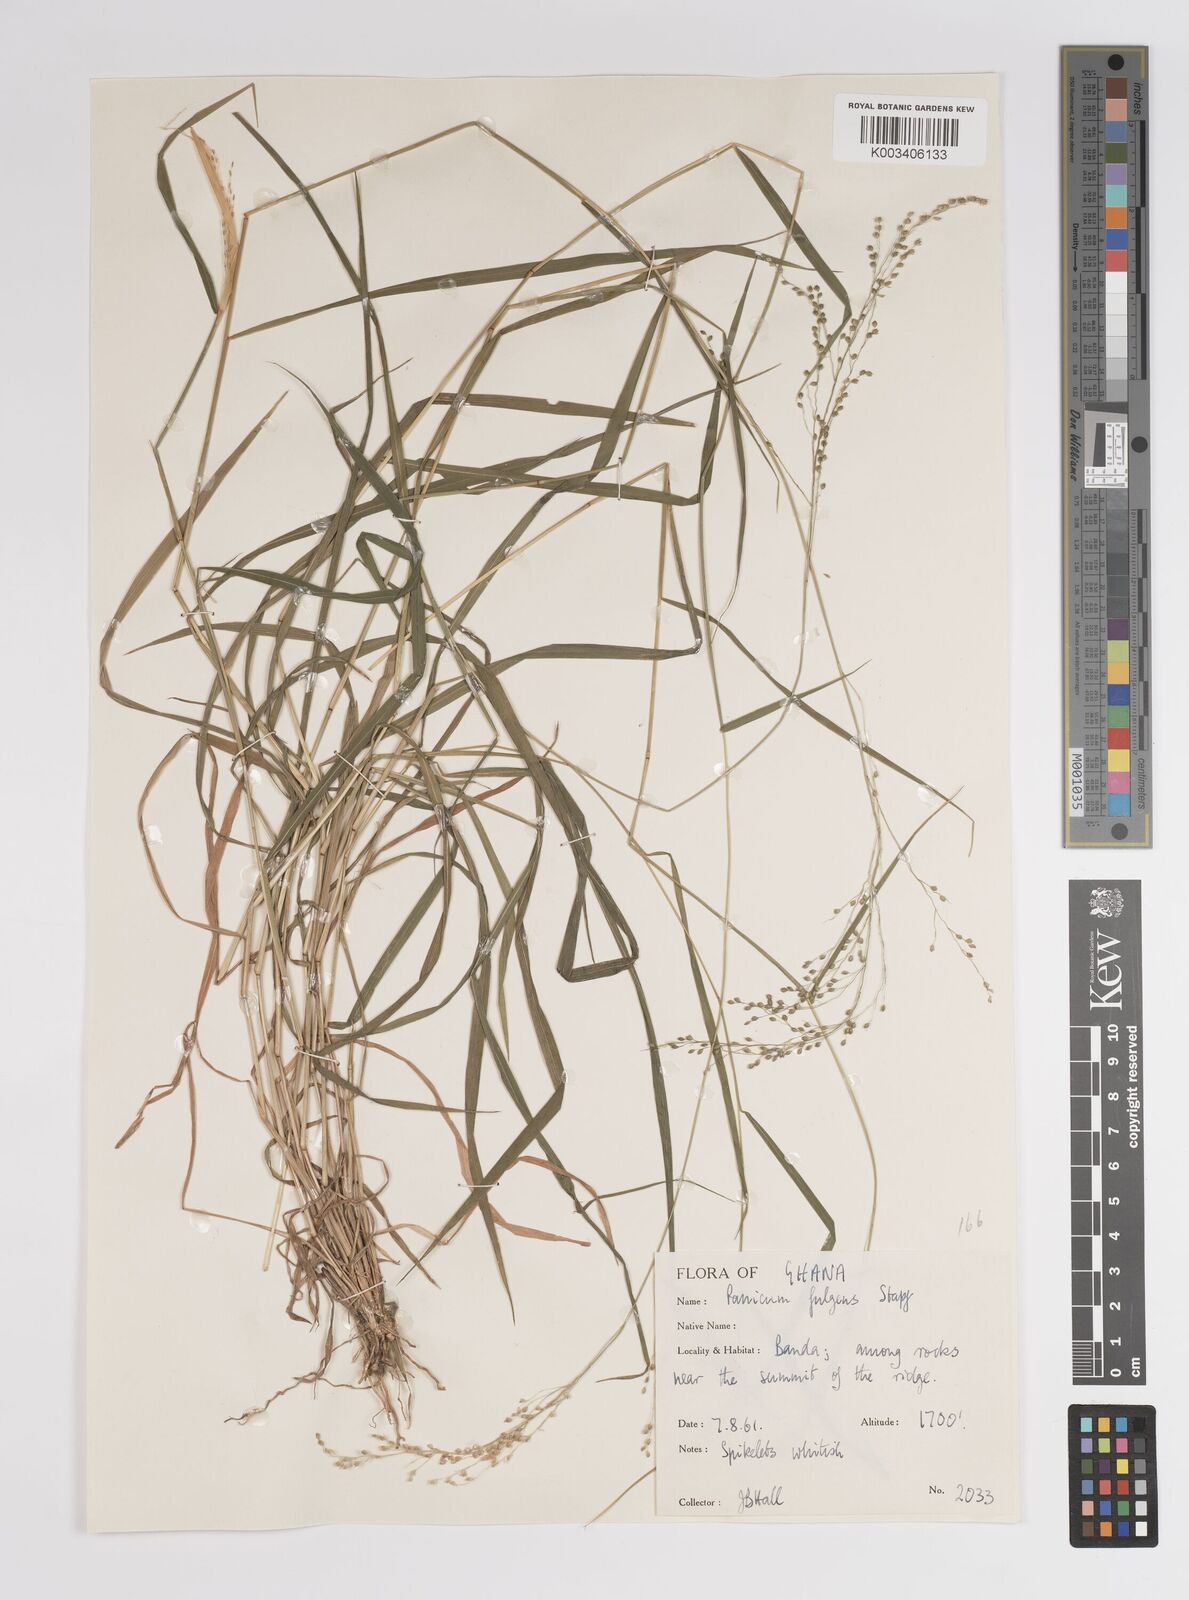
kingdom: Plantae
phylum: Tracheophyta
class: Liliopsida
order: Poales
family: Poaceae
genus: Trichanthecium
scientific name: Trichanthecium nervatum
